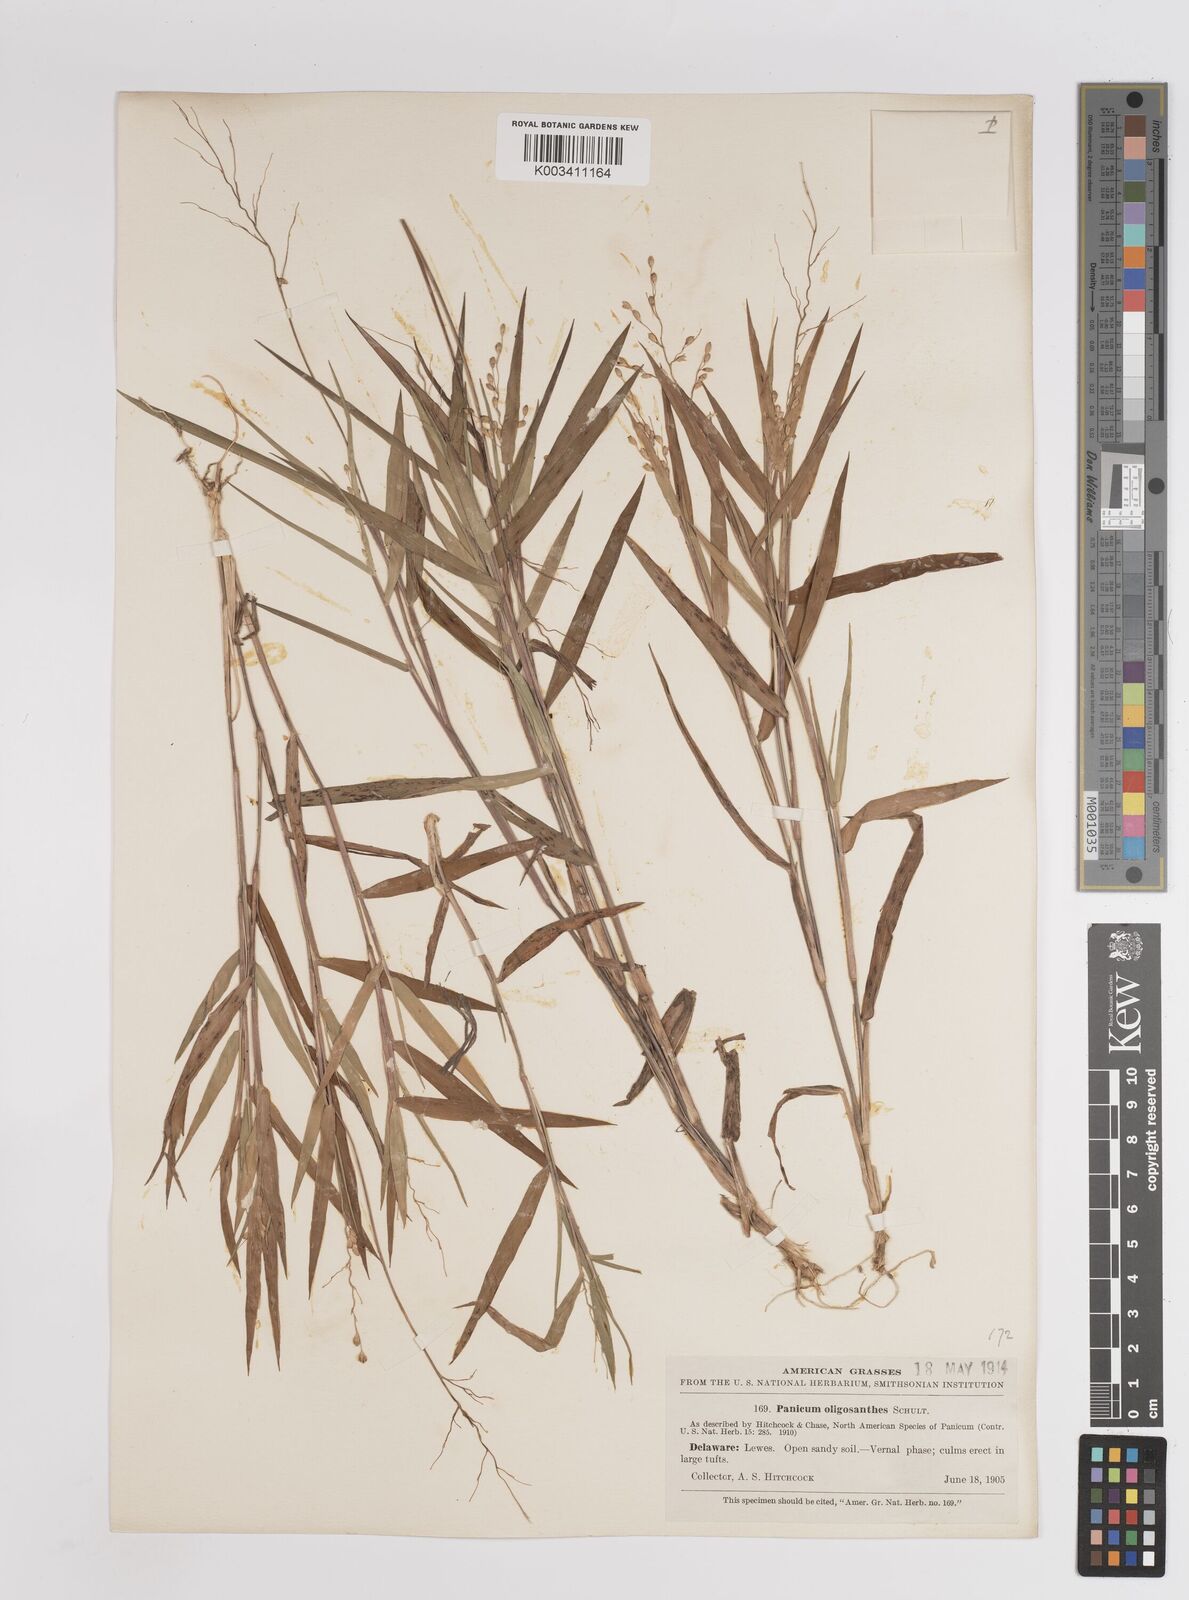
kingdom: Plantae
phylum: Tracheophyta
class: Liliopsida
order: Poales
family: Poaceae
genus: Dichanthelium
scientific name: Dichanthelium oligosanthes
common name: Few-anther obscuregrass
